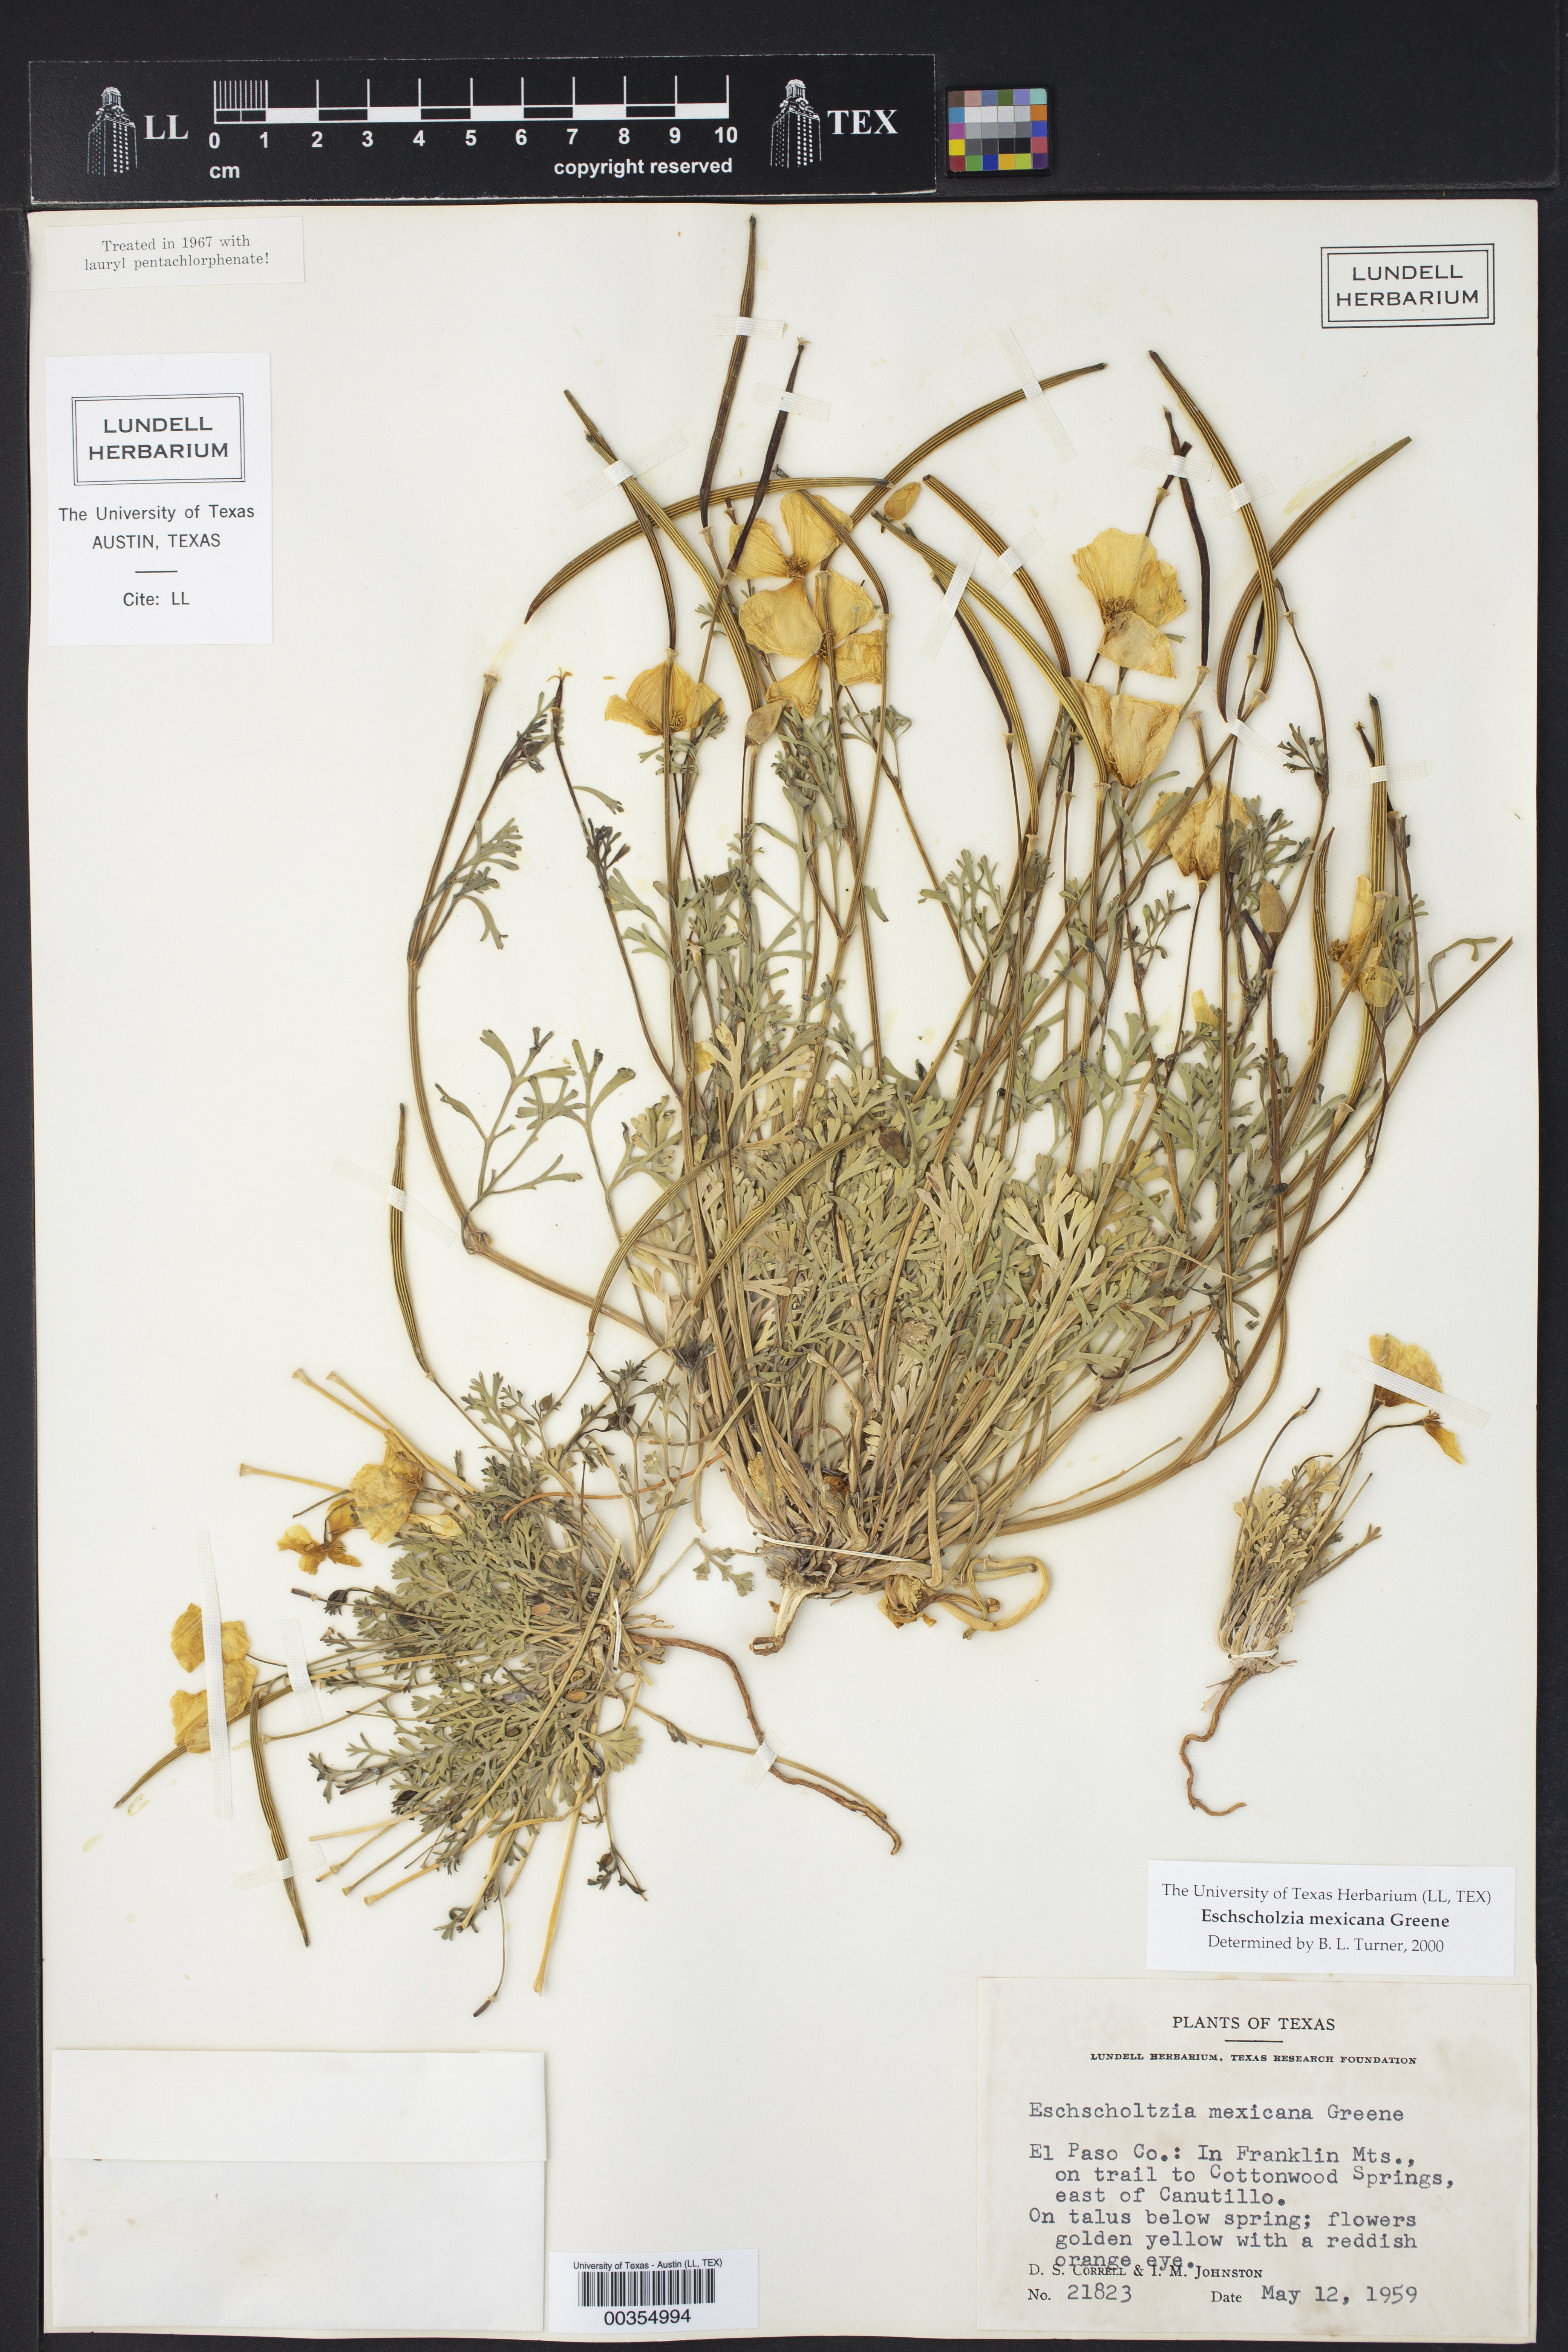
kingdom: Plantae
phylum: Tracheophyta
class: Magnoliopsida
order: Ranunculales
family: Papaveraceae
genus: Eschscholzia
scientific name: Eschscholzia californica
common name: California poppy
